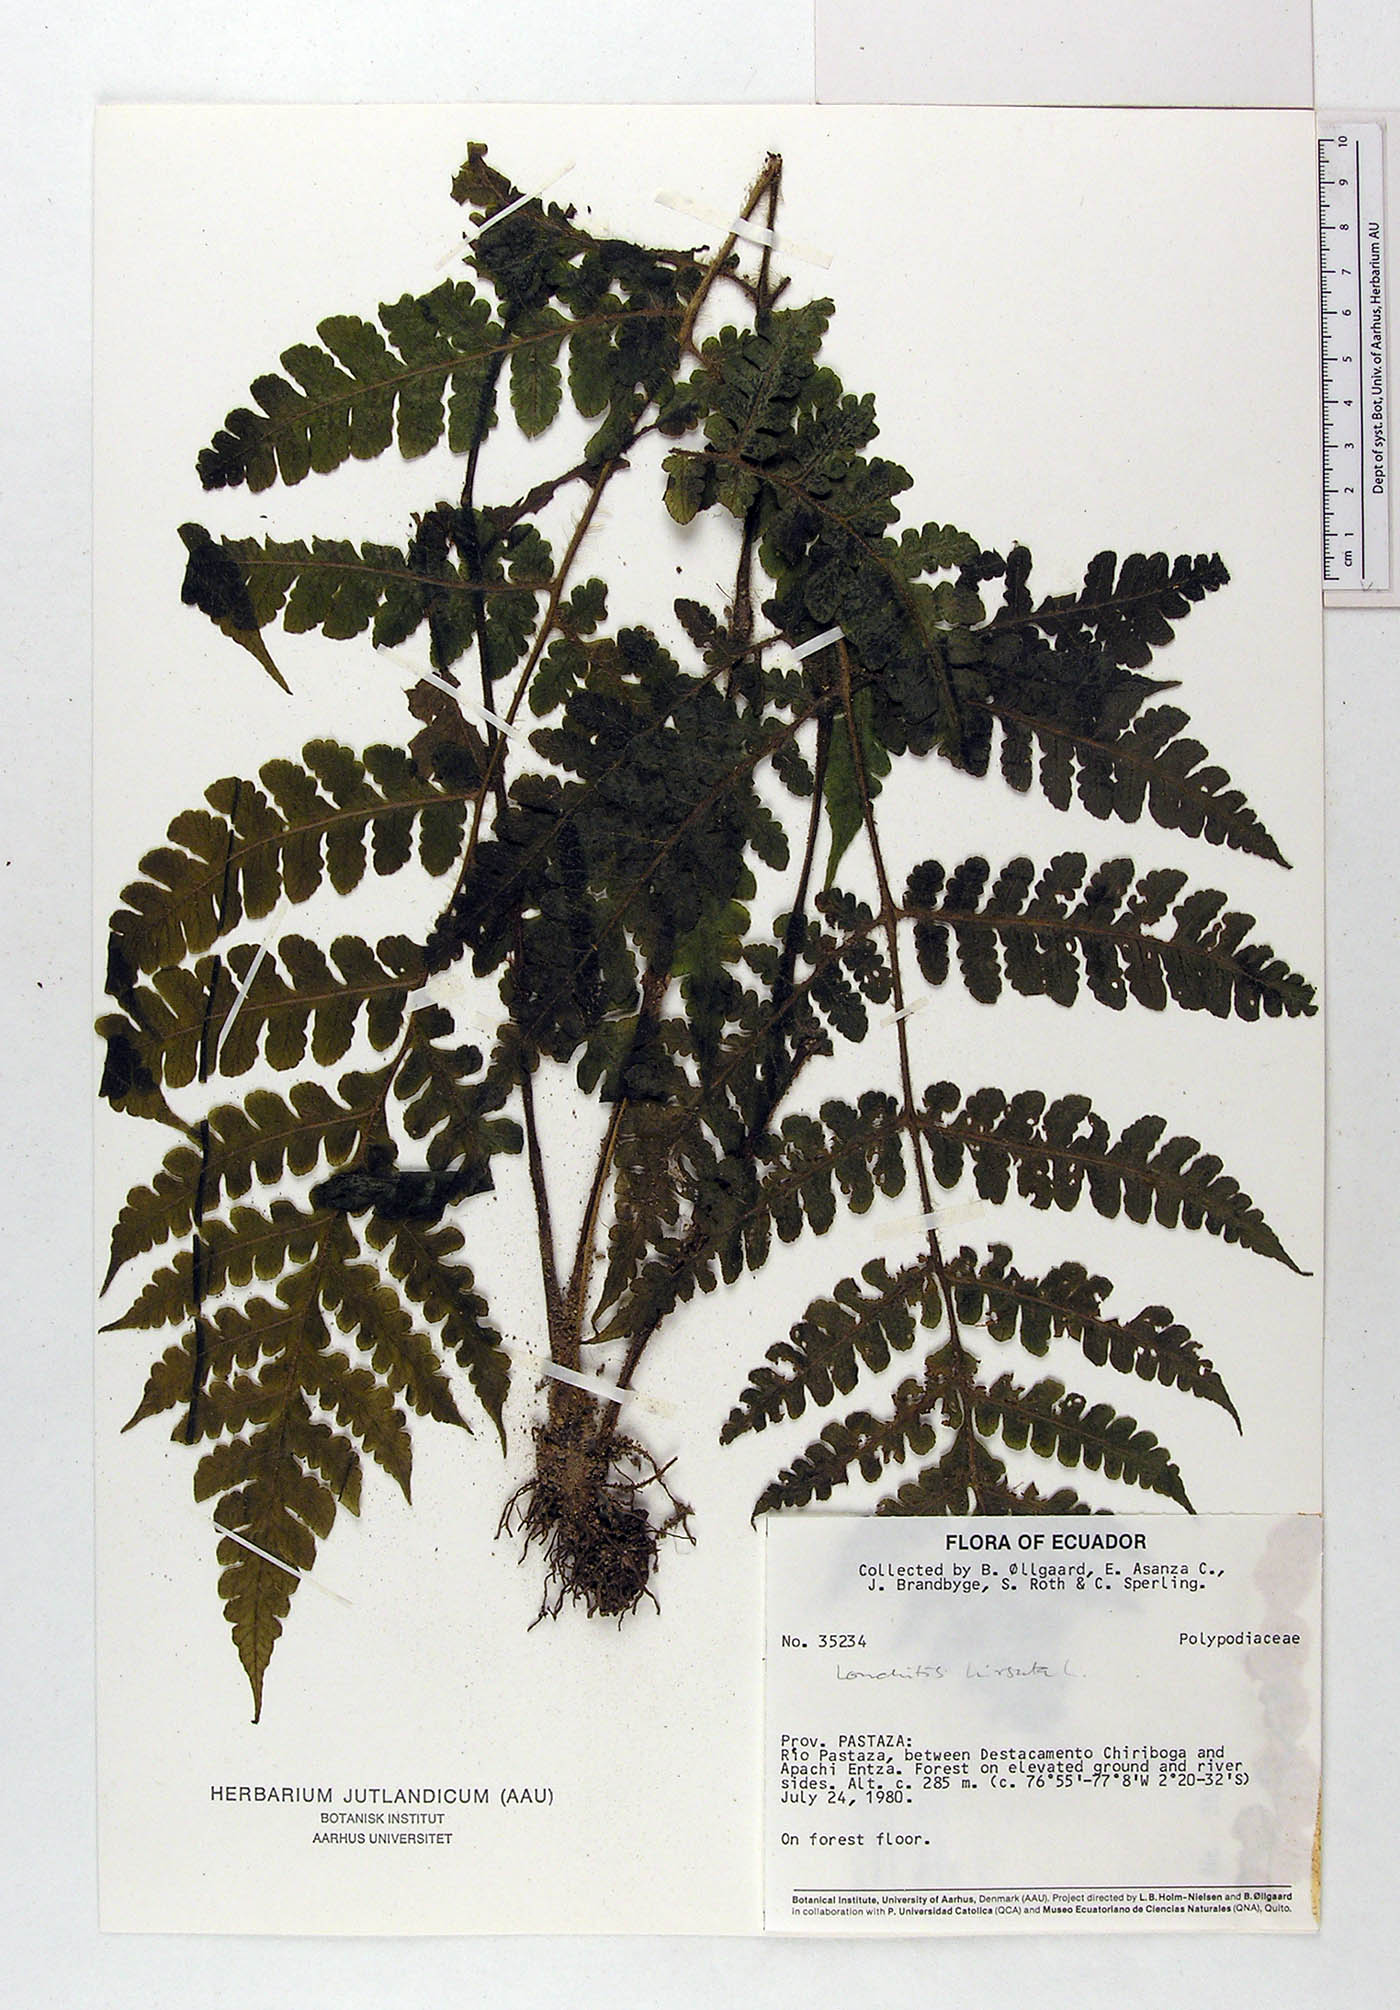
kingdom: Plantae
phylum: Tracheophyta
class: Polypodiopsida
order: Polypodiales
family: Polypodiaceae
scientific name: Polypodiaceae
